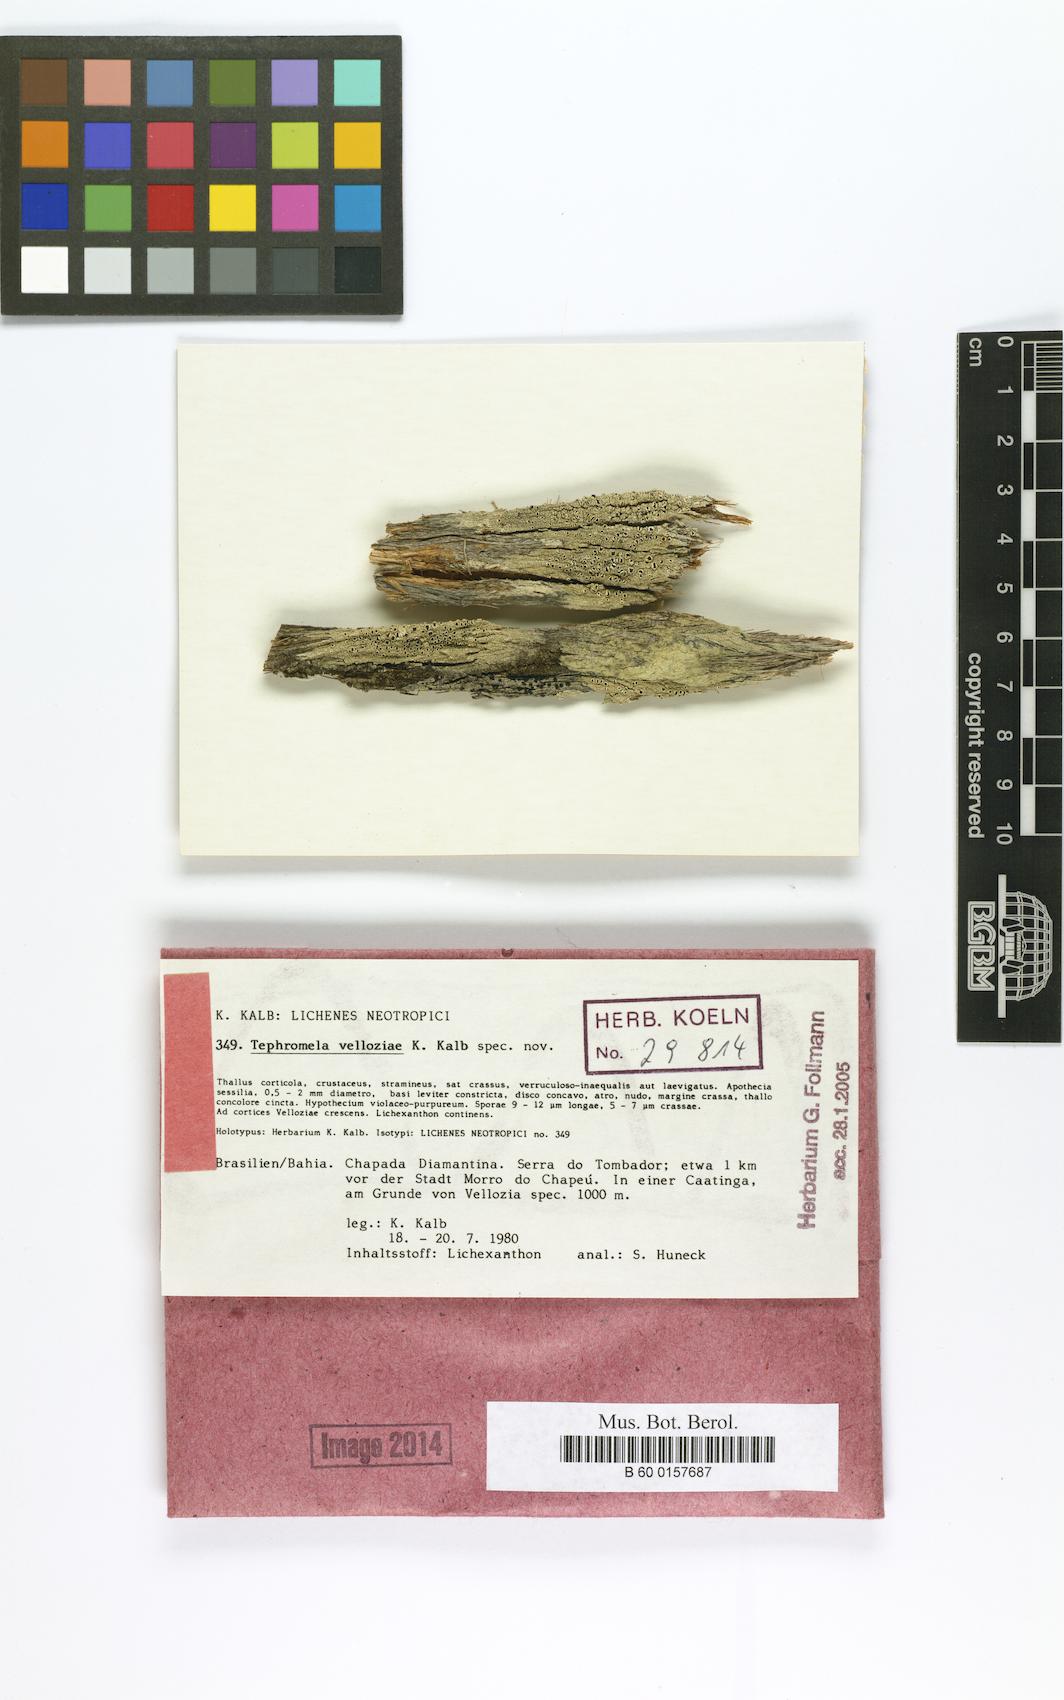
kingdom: Fungi
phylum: Ascomycota
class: Lecanoromycetes
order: Lecanorales
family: Tephromelataceae
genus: Tephromela
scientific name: Tephromela velloziae
